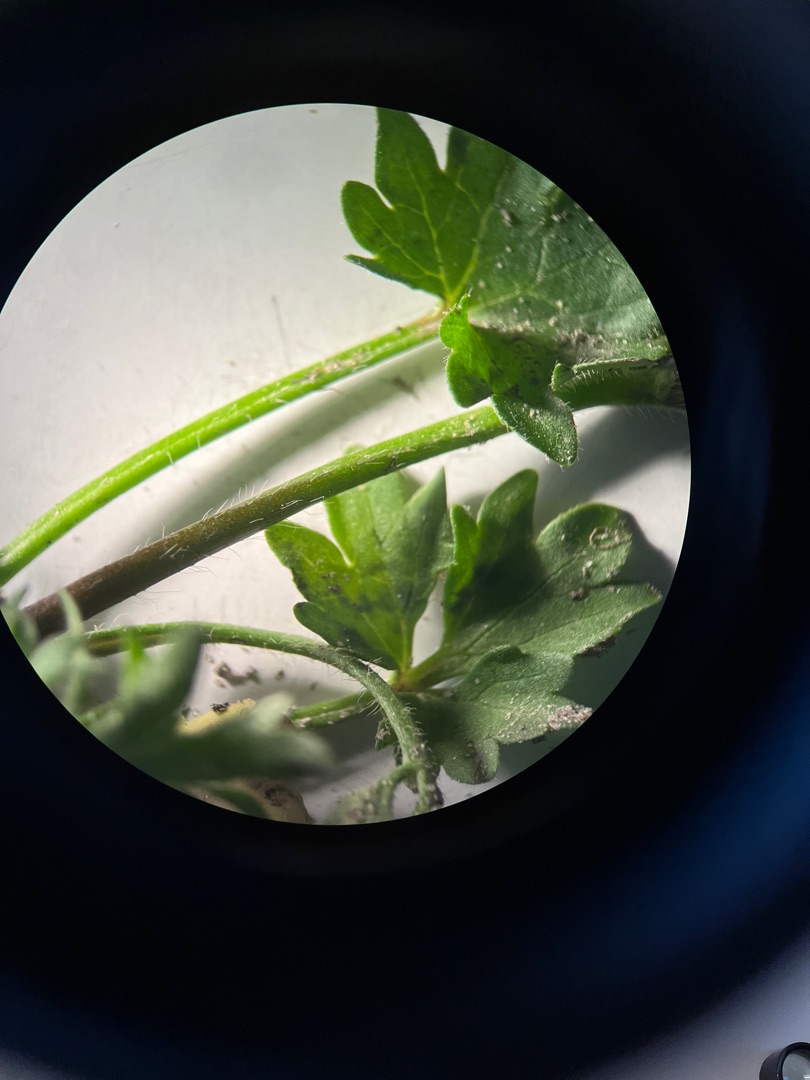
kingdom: Plantae
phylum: Tracheophyta
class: Magnoliopsida
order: Ranunculales
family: Ranunculaceae
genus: Ranunculus
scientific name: Ranunculus sardous
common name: Stivhåret ranunkel
